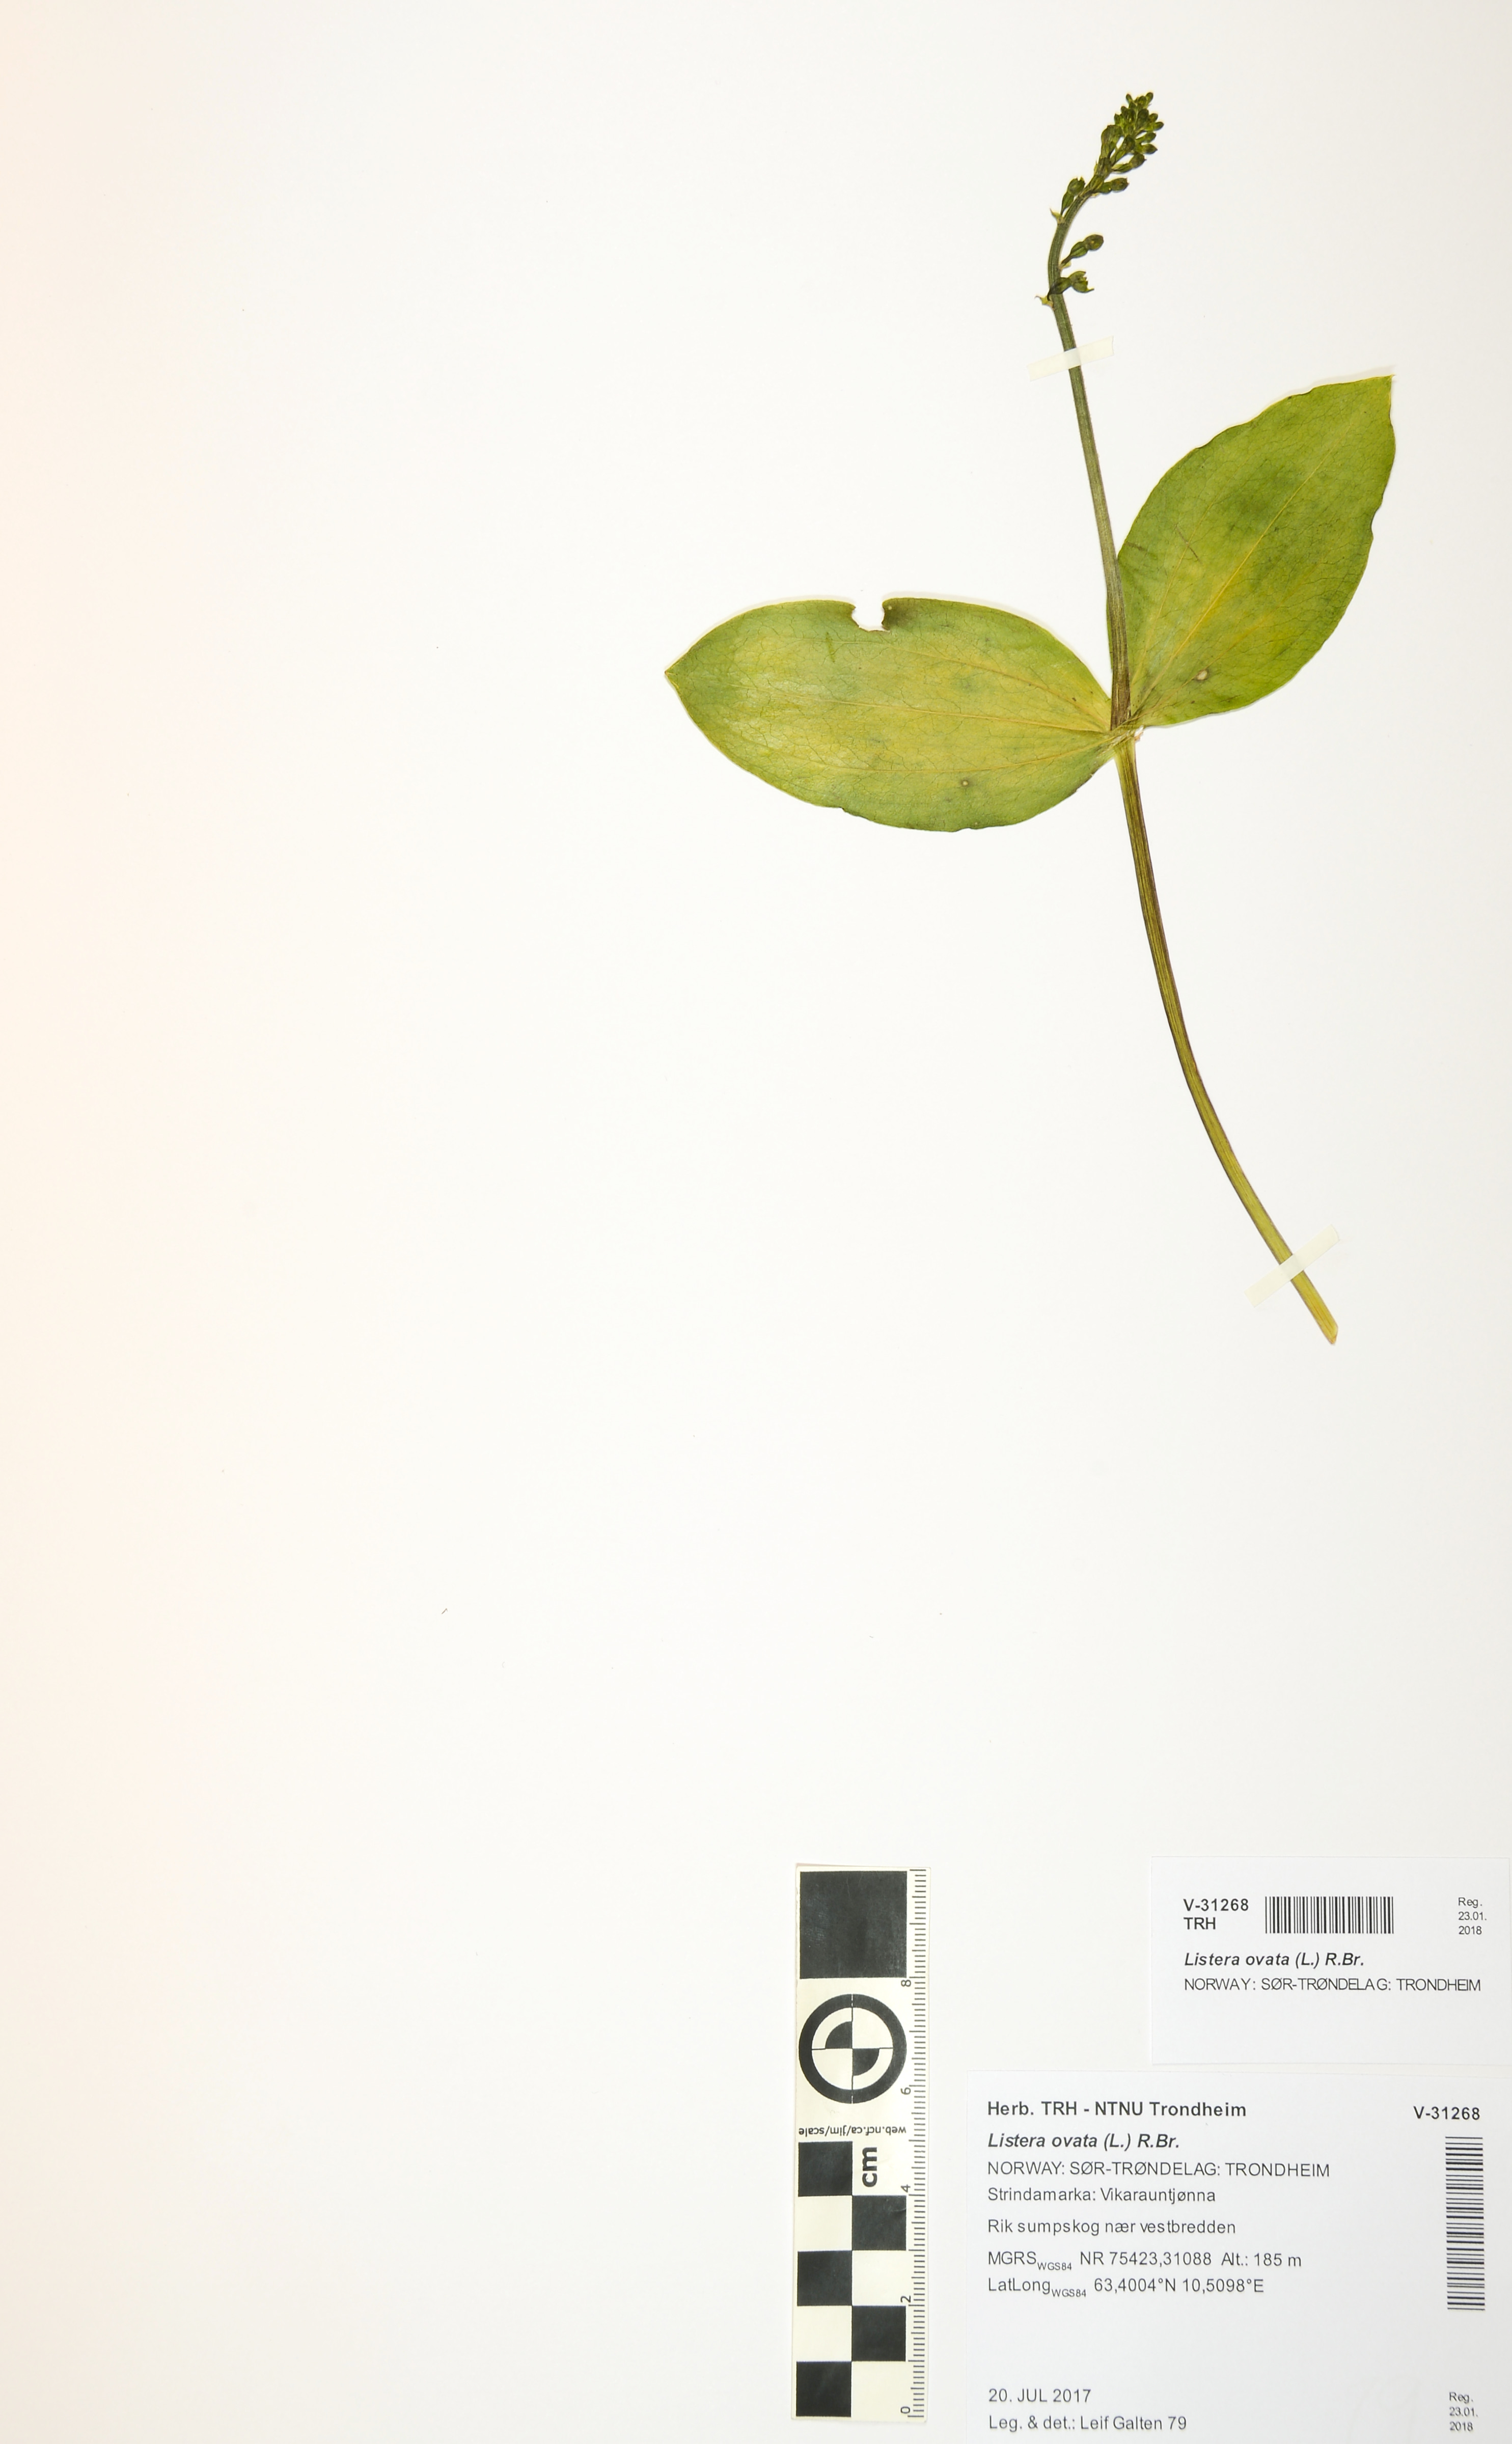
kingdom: Plantae
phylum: Tracheophyta
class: Liliopsida
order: Asparagales
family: Orchidaceae
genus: Neottia
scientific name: Neottia ovata
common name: Common twayblade
